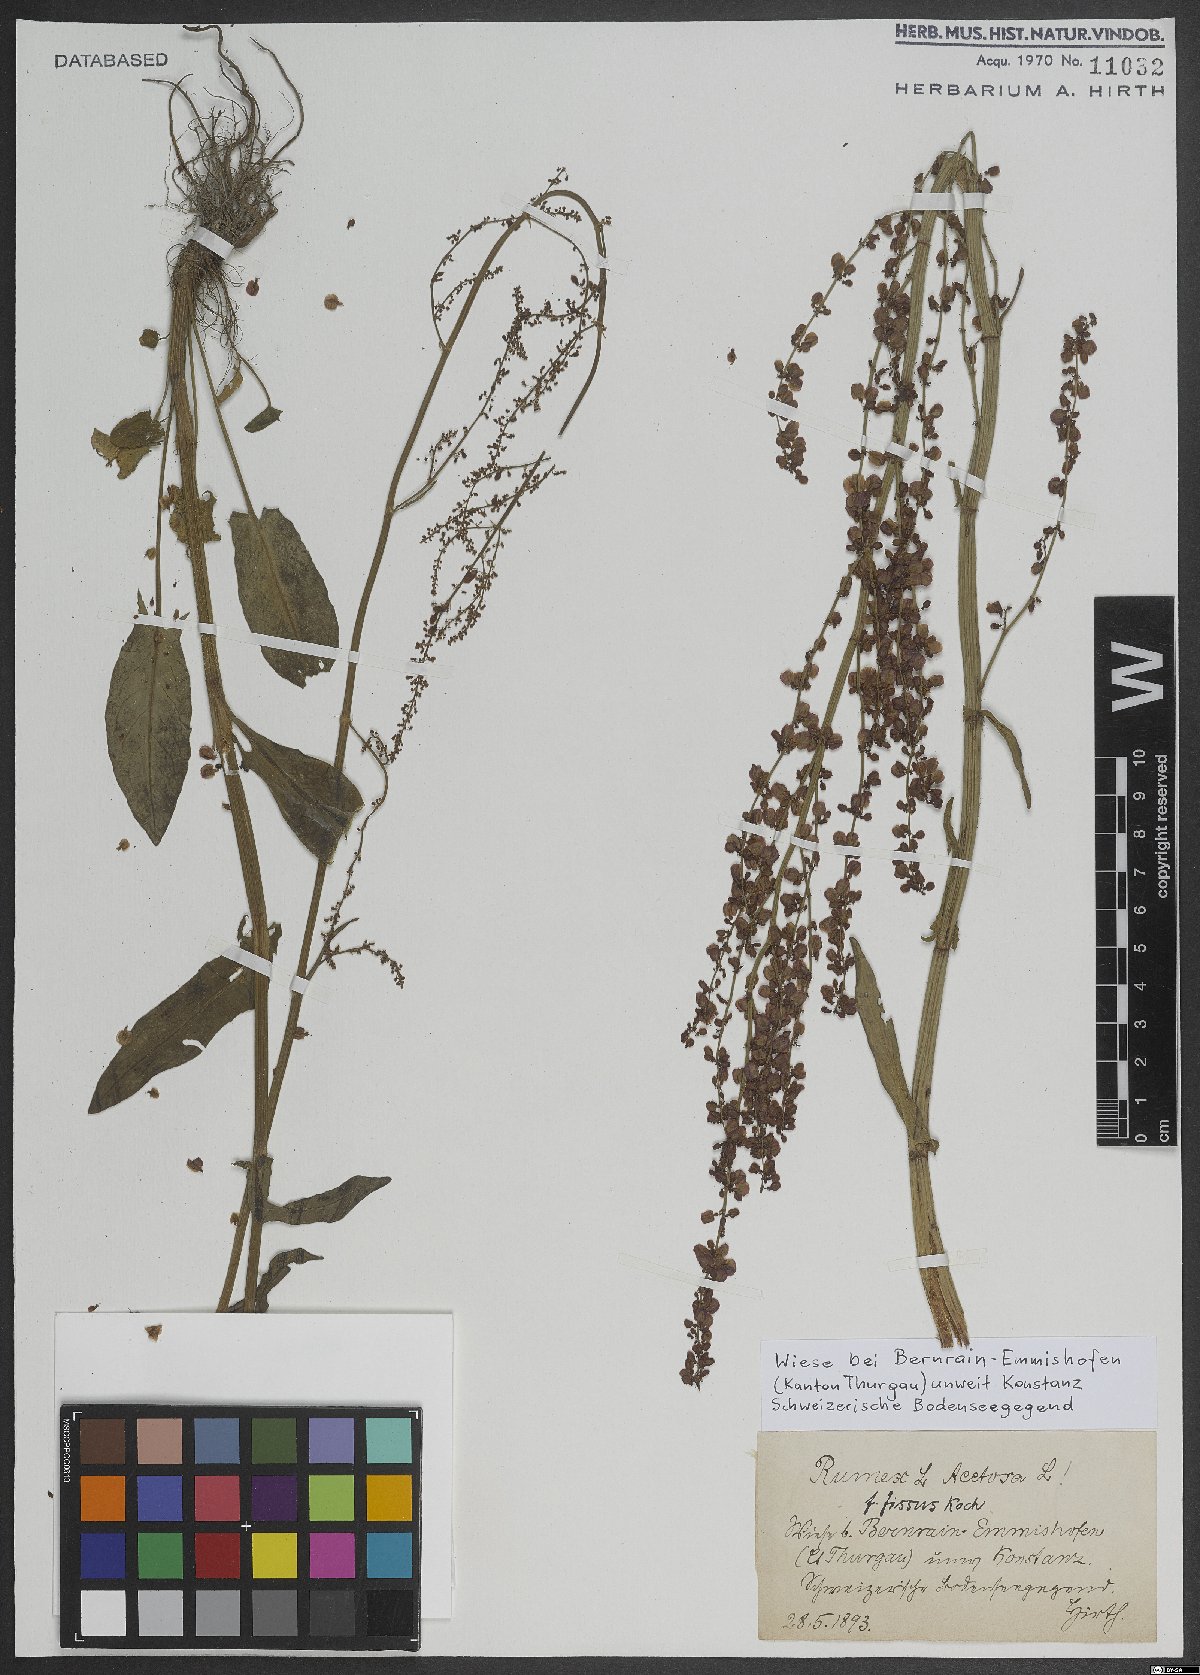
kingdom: Plantae
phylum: Tracheophyta
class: Magnoliopsida
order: Caryophyllales
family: Polygonaceae
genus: Rumex
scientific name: Rumex acetosa
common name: Garden sorrel
